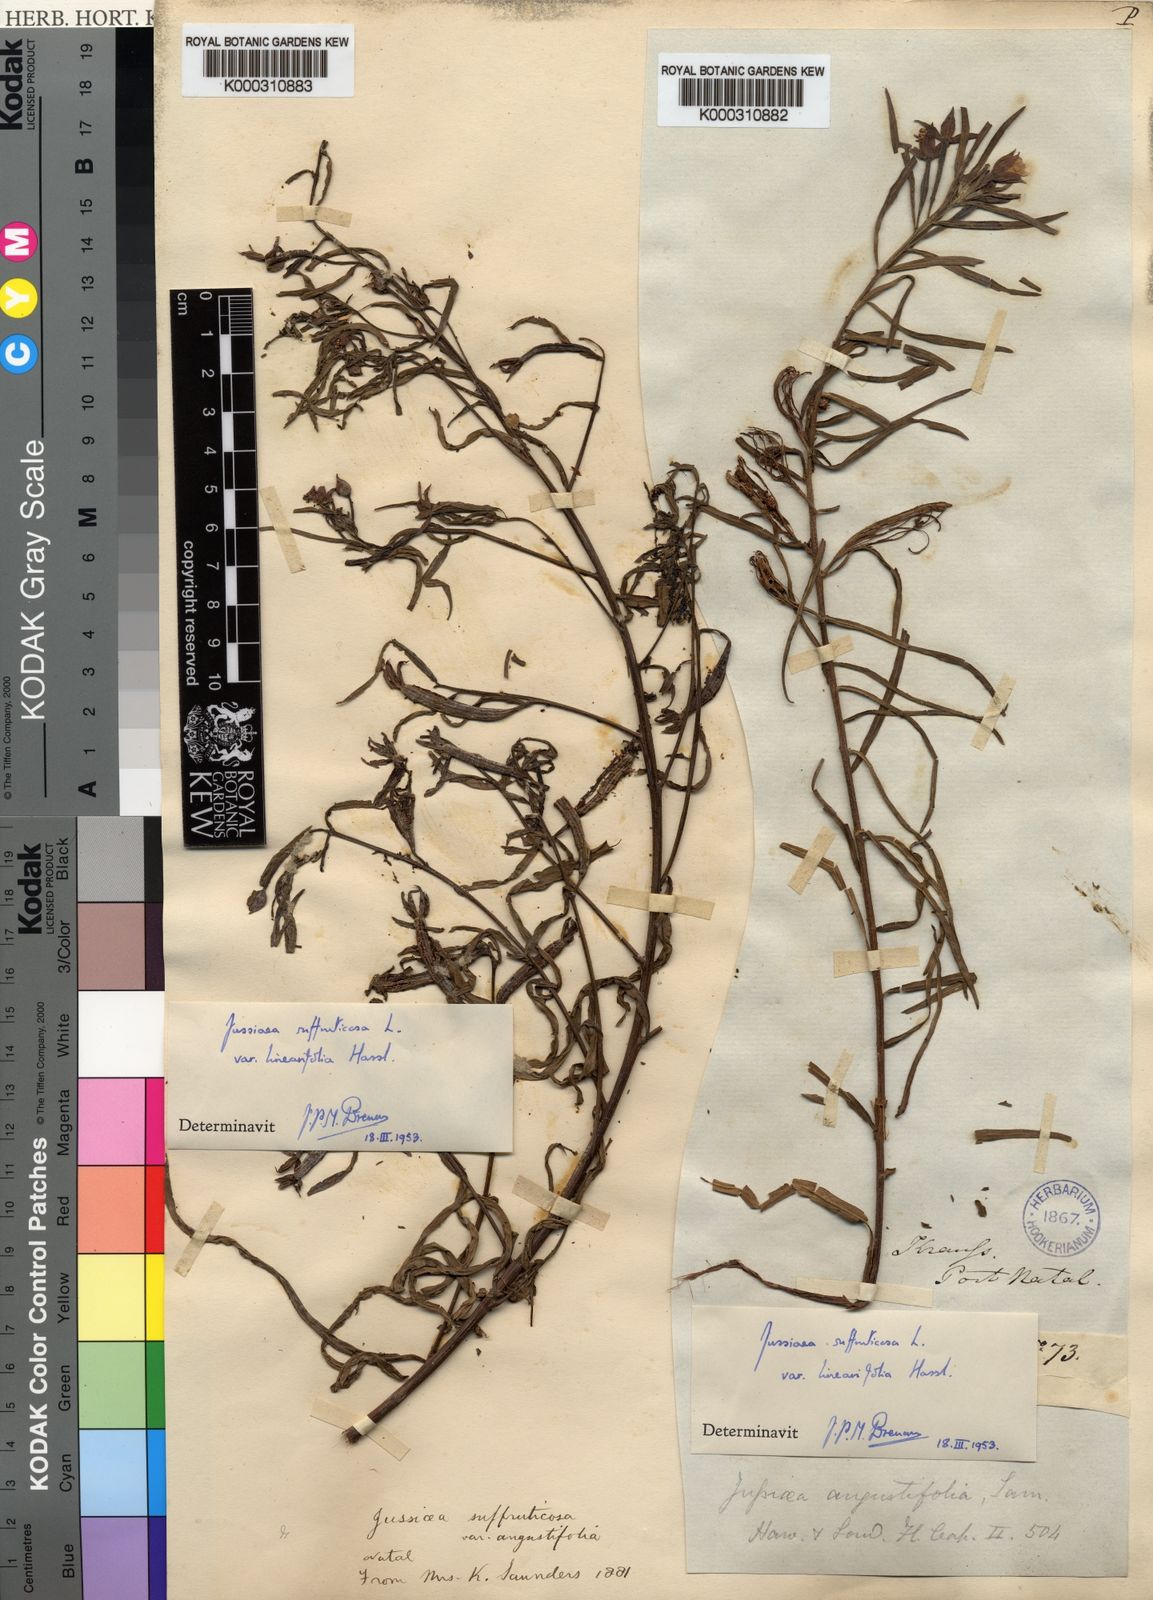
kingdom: Plantae
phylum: Tracheophyta
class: Magnoliopsida
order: Myrtales
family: Onagraceae
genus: Ludwigia
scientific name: Ludwigia
